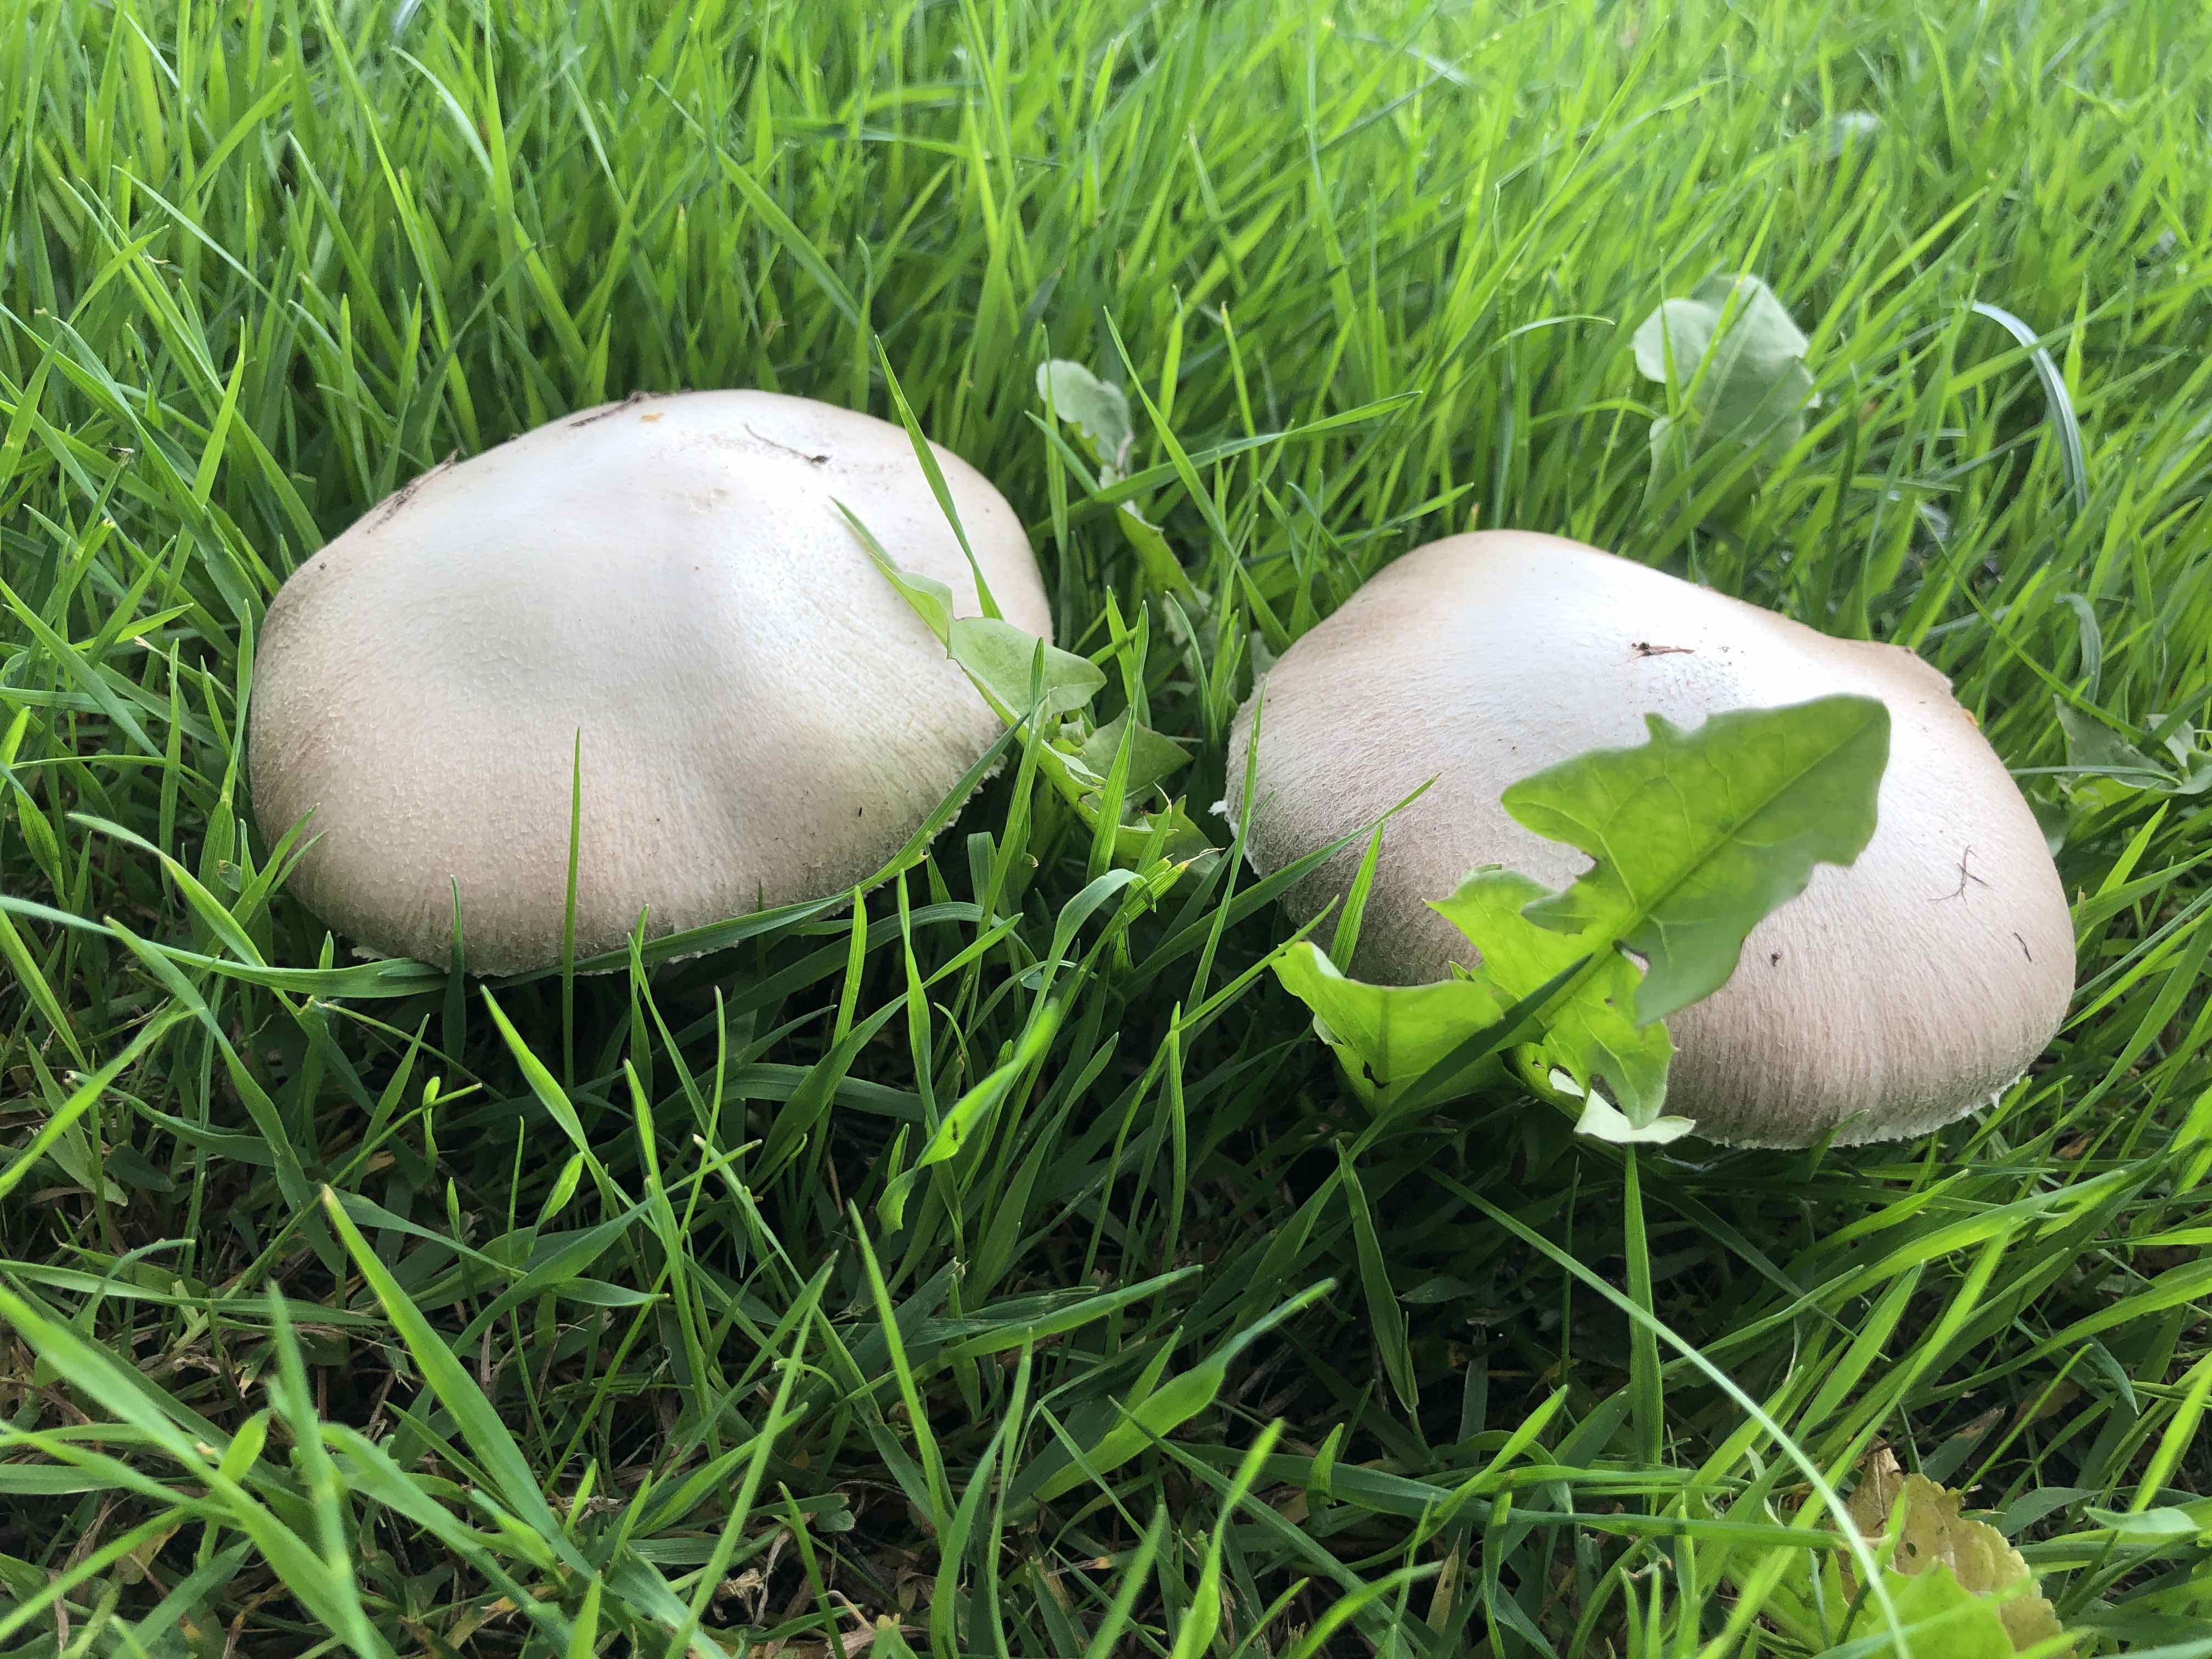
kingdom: Fungi
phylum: Basidiomycota
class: Agaricomycetes
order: Agaricales
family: Agaricaceae
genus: Agaricus
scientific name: Agaricus
